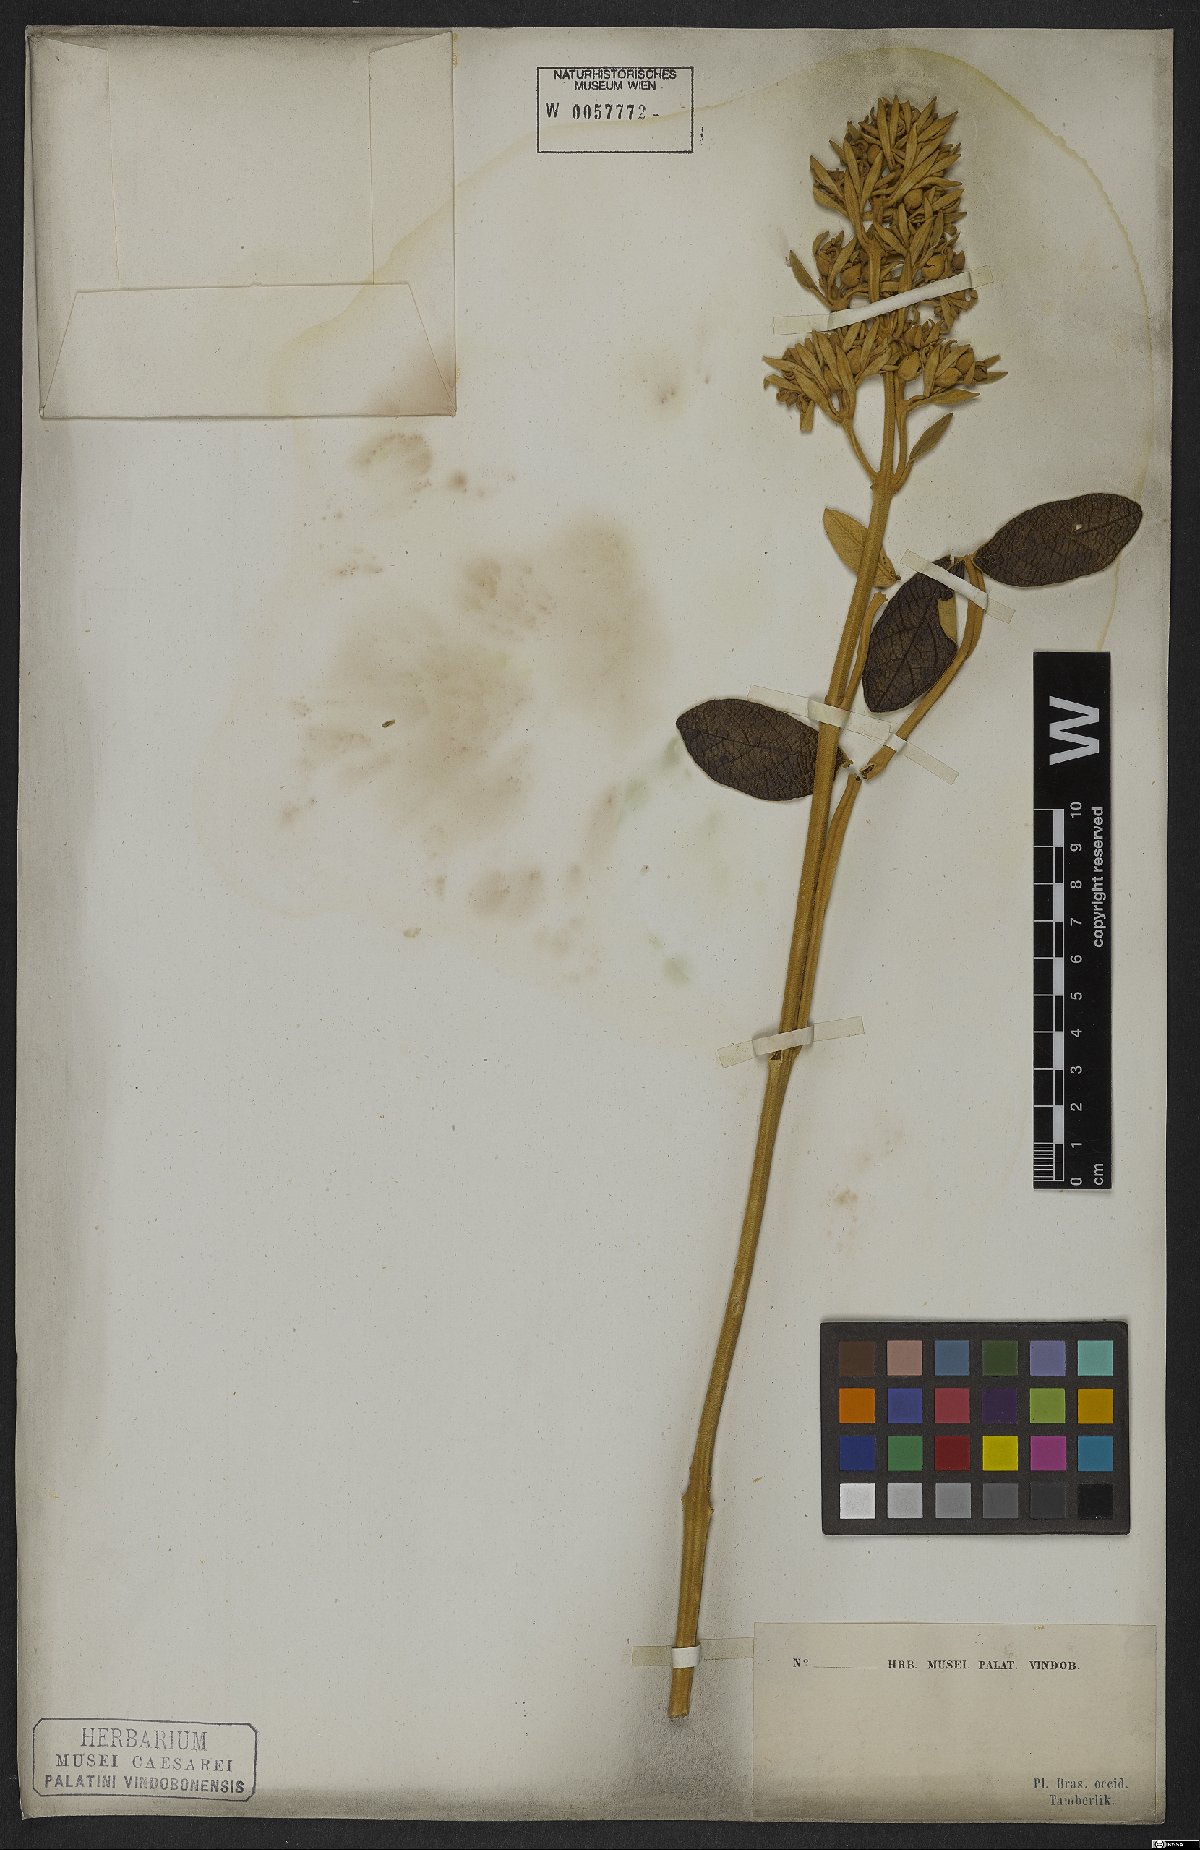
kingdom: Plantae
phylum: Tracheophyta
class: Magnoliopsida
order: Lamiales
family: Bignoniaceae
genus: Zeyheria
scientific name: Zeyheria montana
